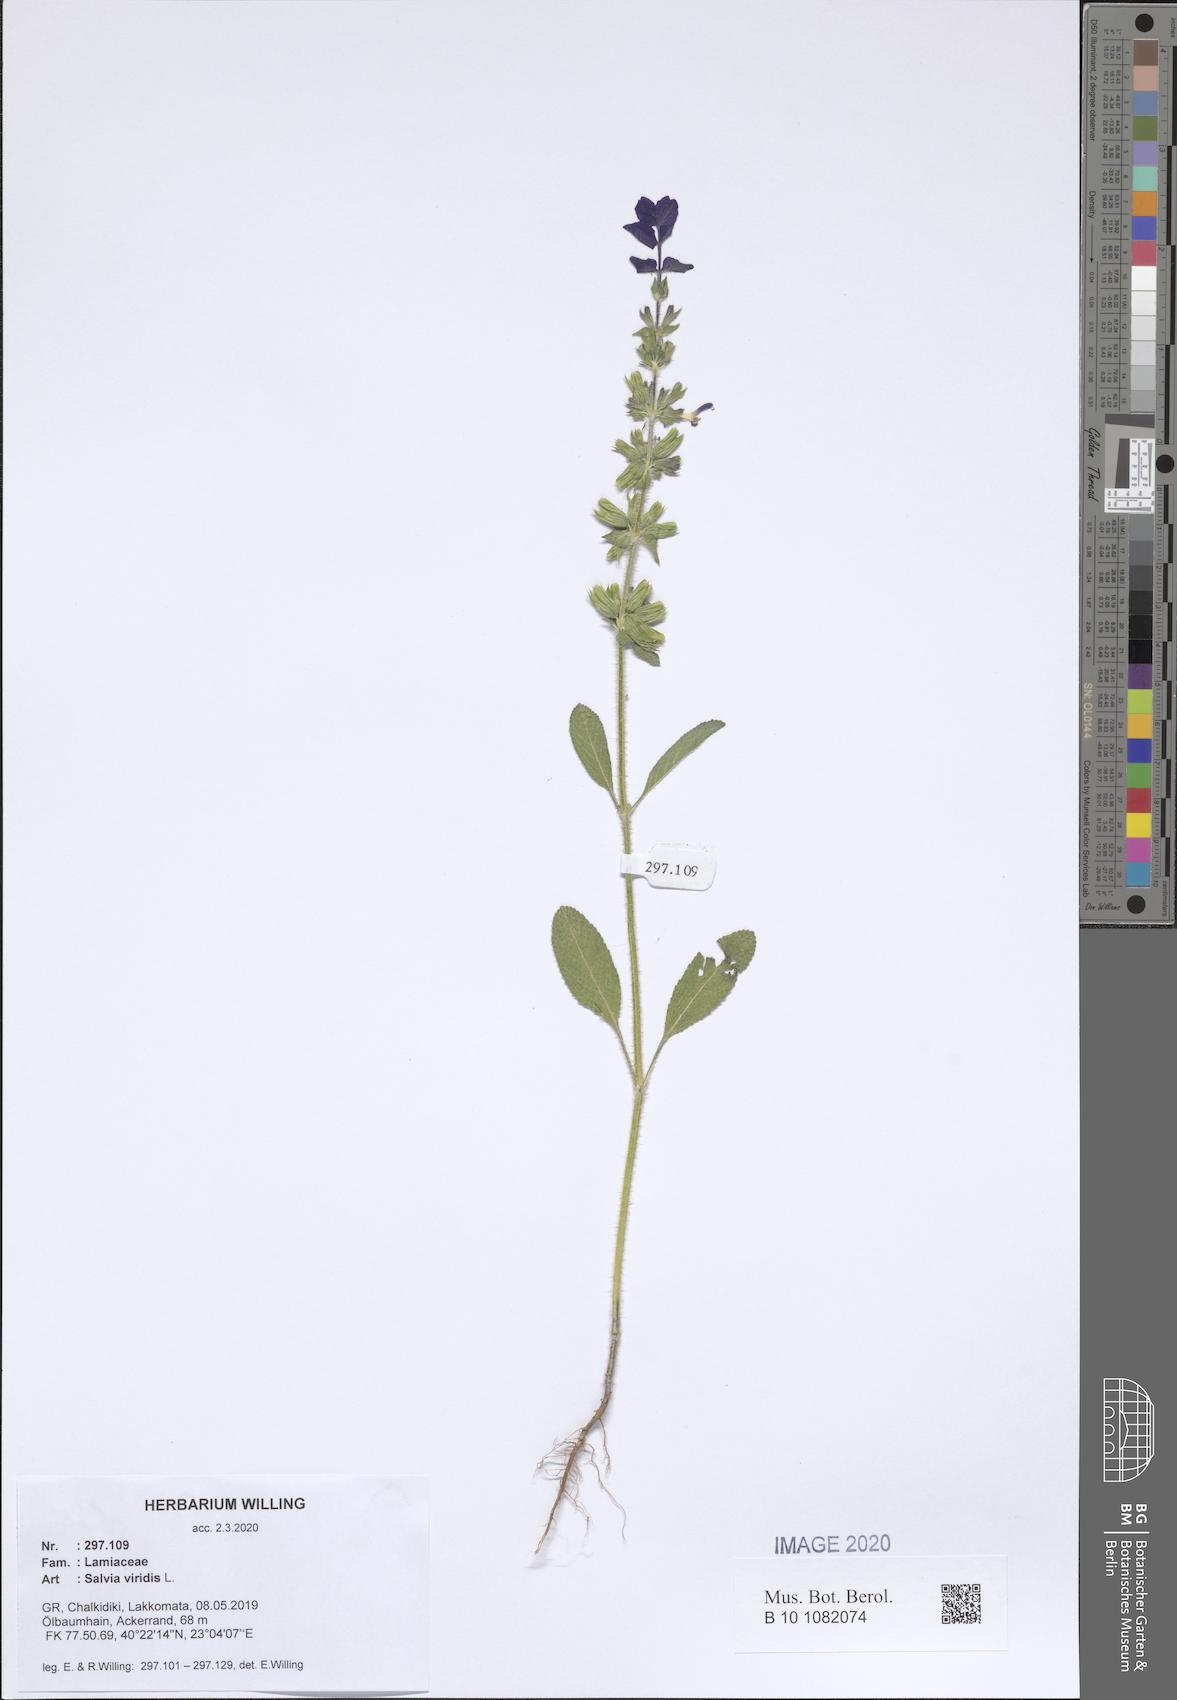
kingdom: Plantae
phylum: Tracheophyta
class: Magnoliopsida
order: Lamiales
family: Lamiaceae
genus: Salvia
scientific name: Salvia viridis
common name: Annual clary
